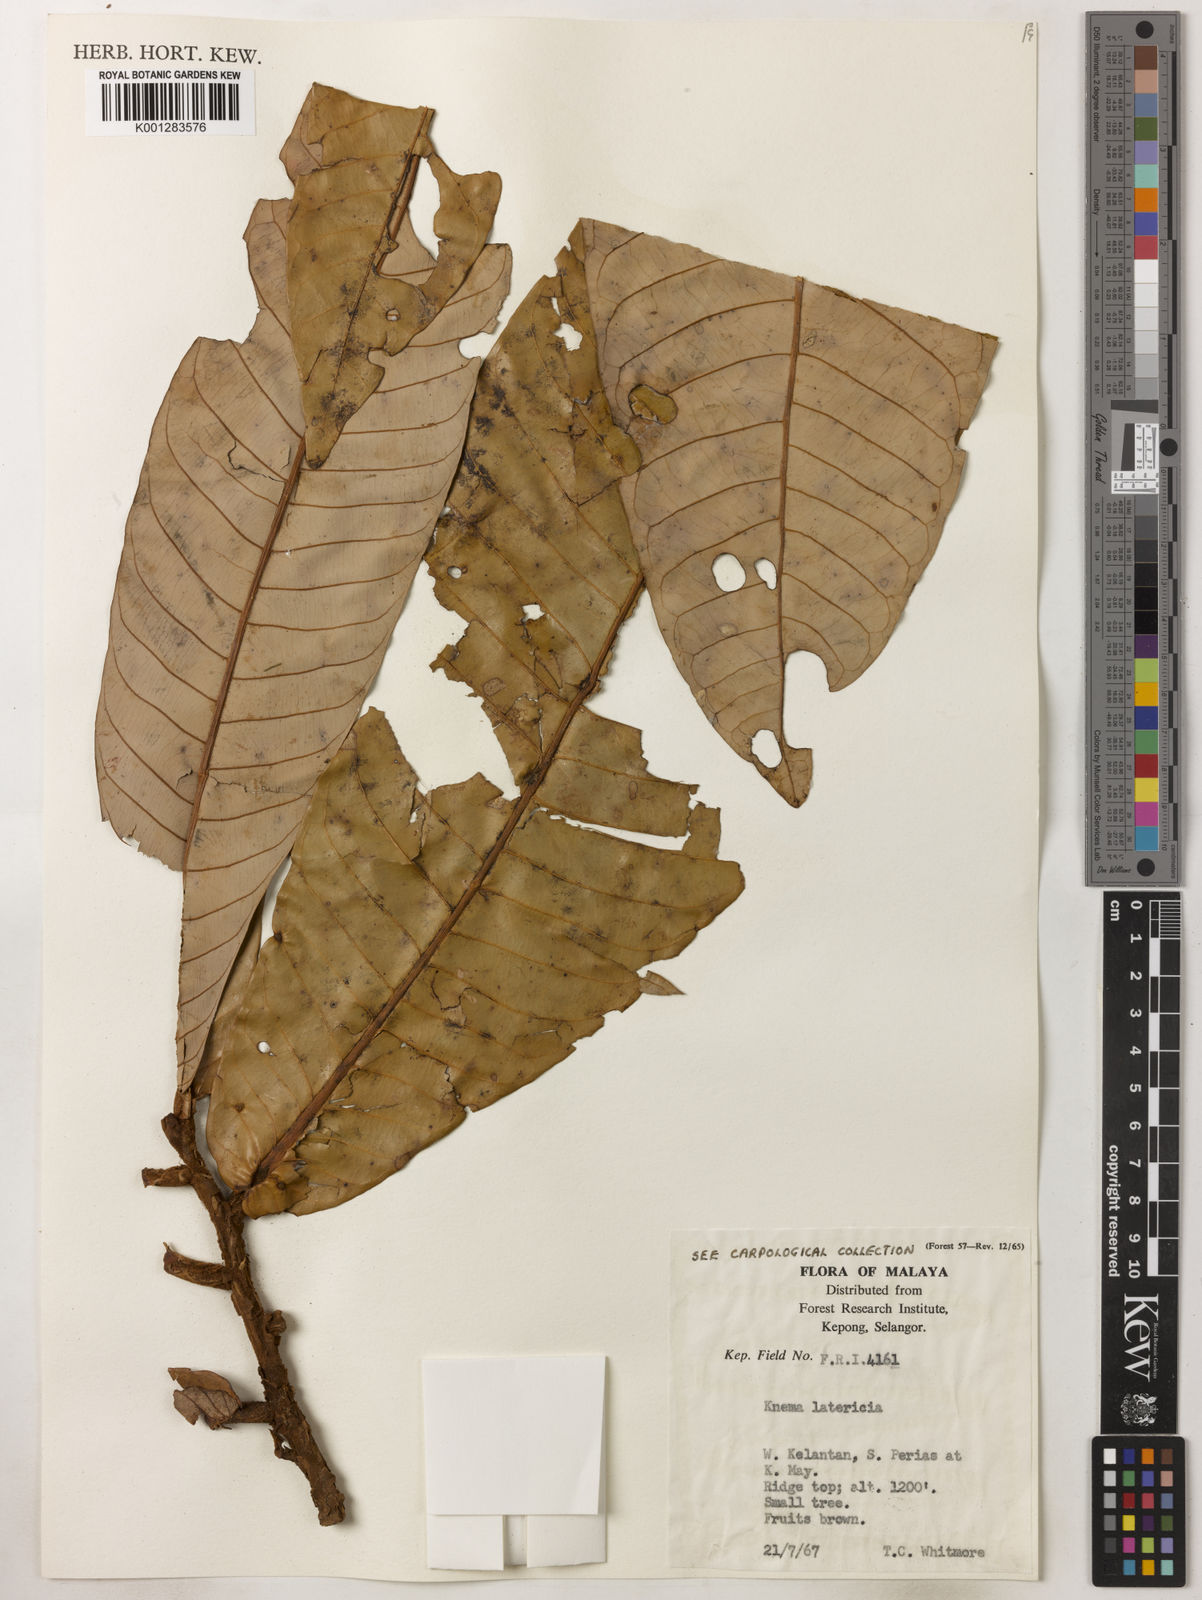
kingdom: Plantae
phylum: Tracheophyta
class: Magnoliopsida
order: Magnoliales
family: Myristicaceae
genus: Knema
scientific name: Knema latericia
